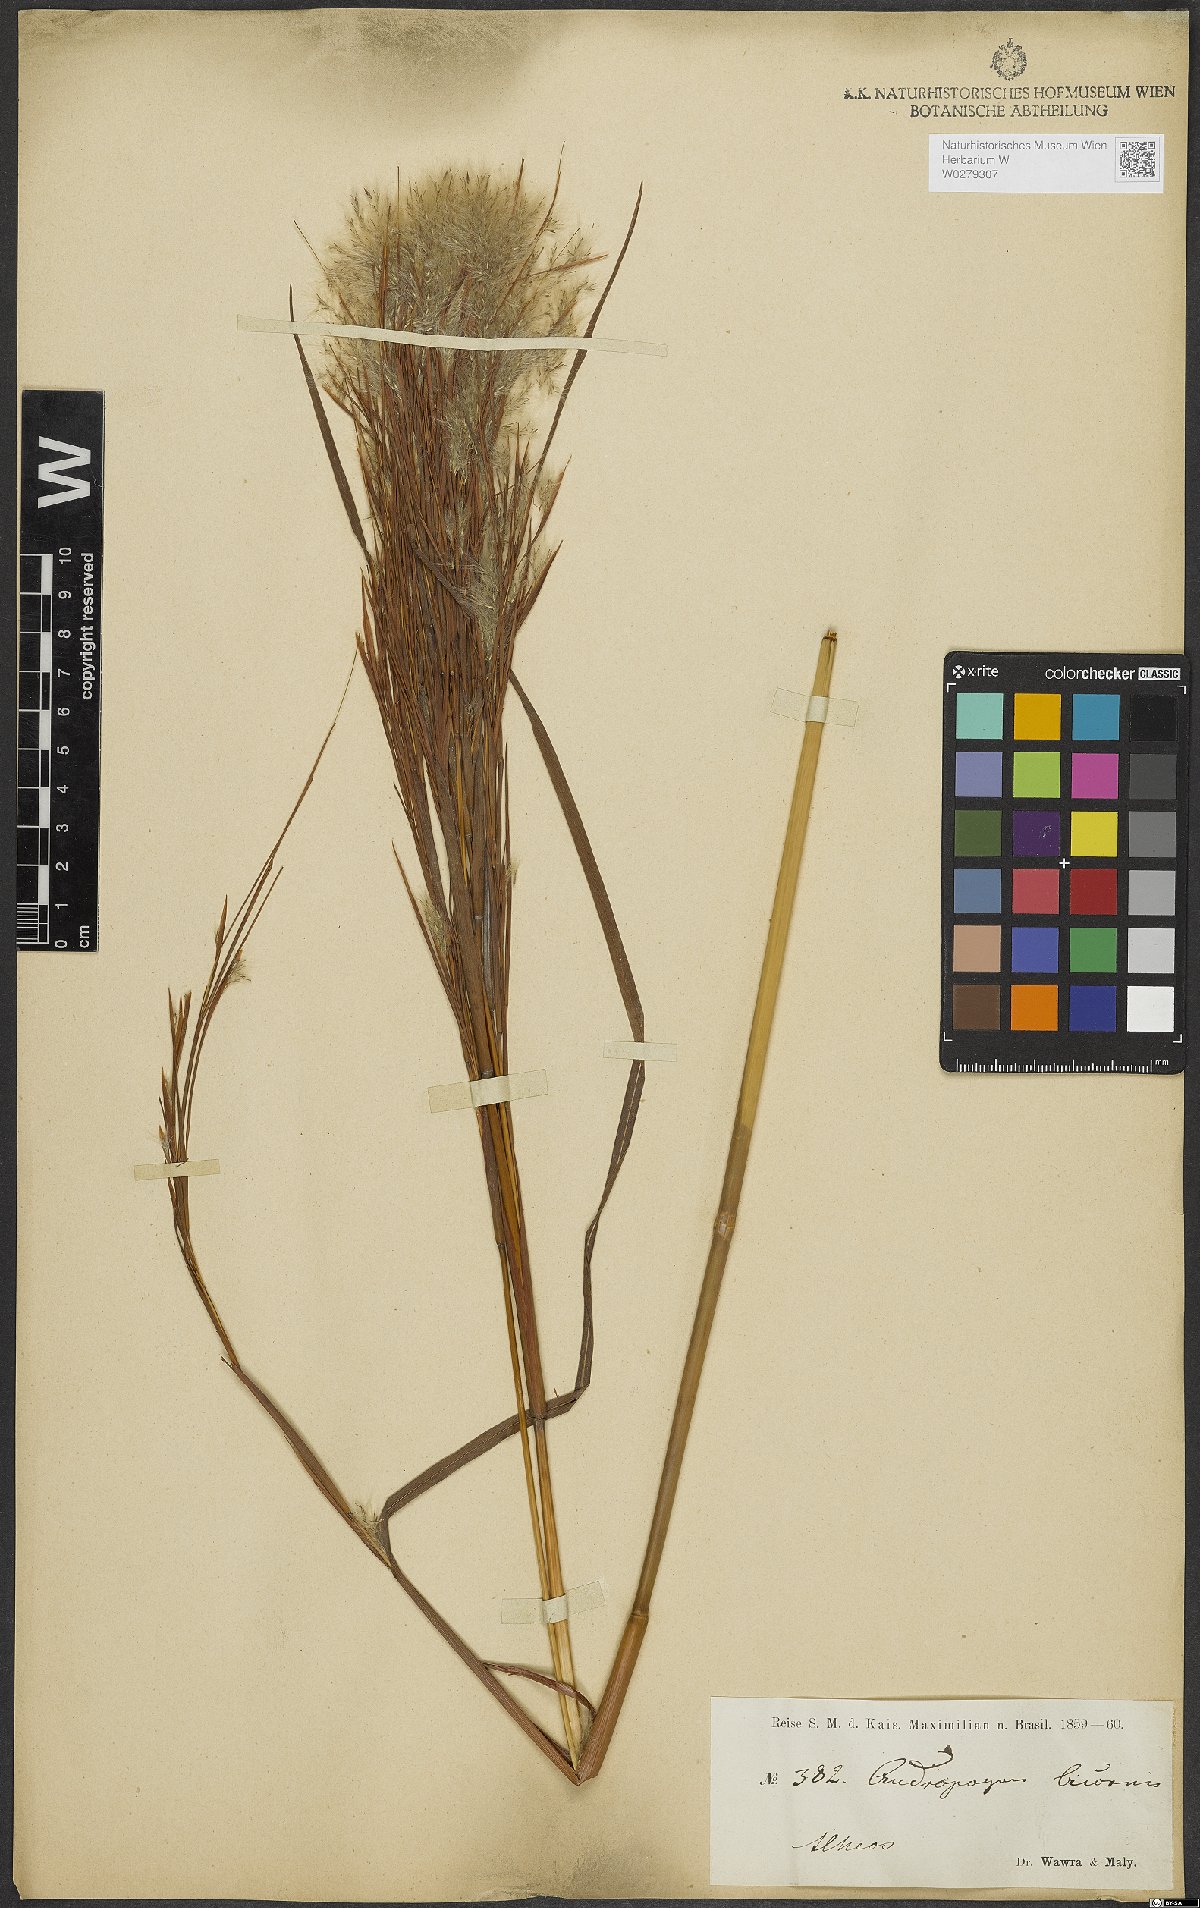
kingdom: Plantae
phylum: Tracheophyta
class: Liliopsida
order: Poales
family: Poaceae
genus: Andropogon
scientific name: Andropogon bicornis
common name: West indian foxtail grass
